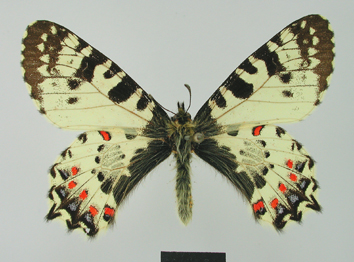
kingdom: Animalia
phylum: Arthropoda
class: Insecta
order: Lepidoptera
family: Papilionidae
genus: Zerynthia
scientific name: Zerynthia caucasica
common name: Caucasian festoon
